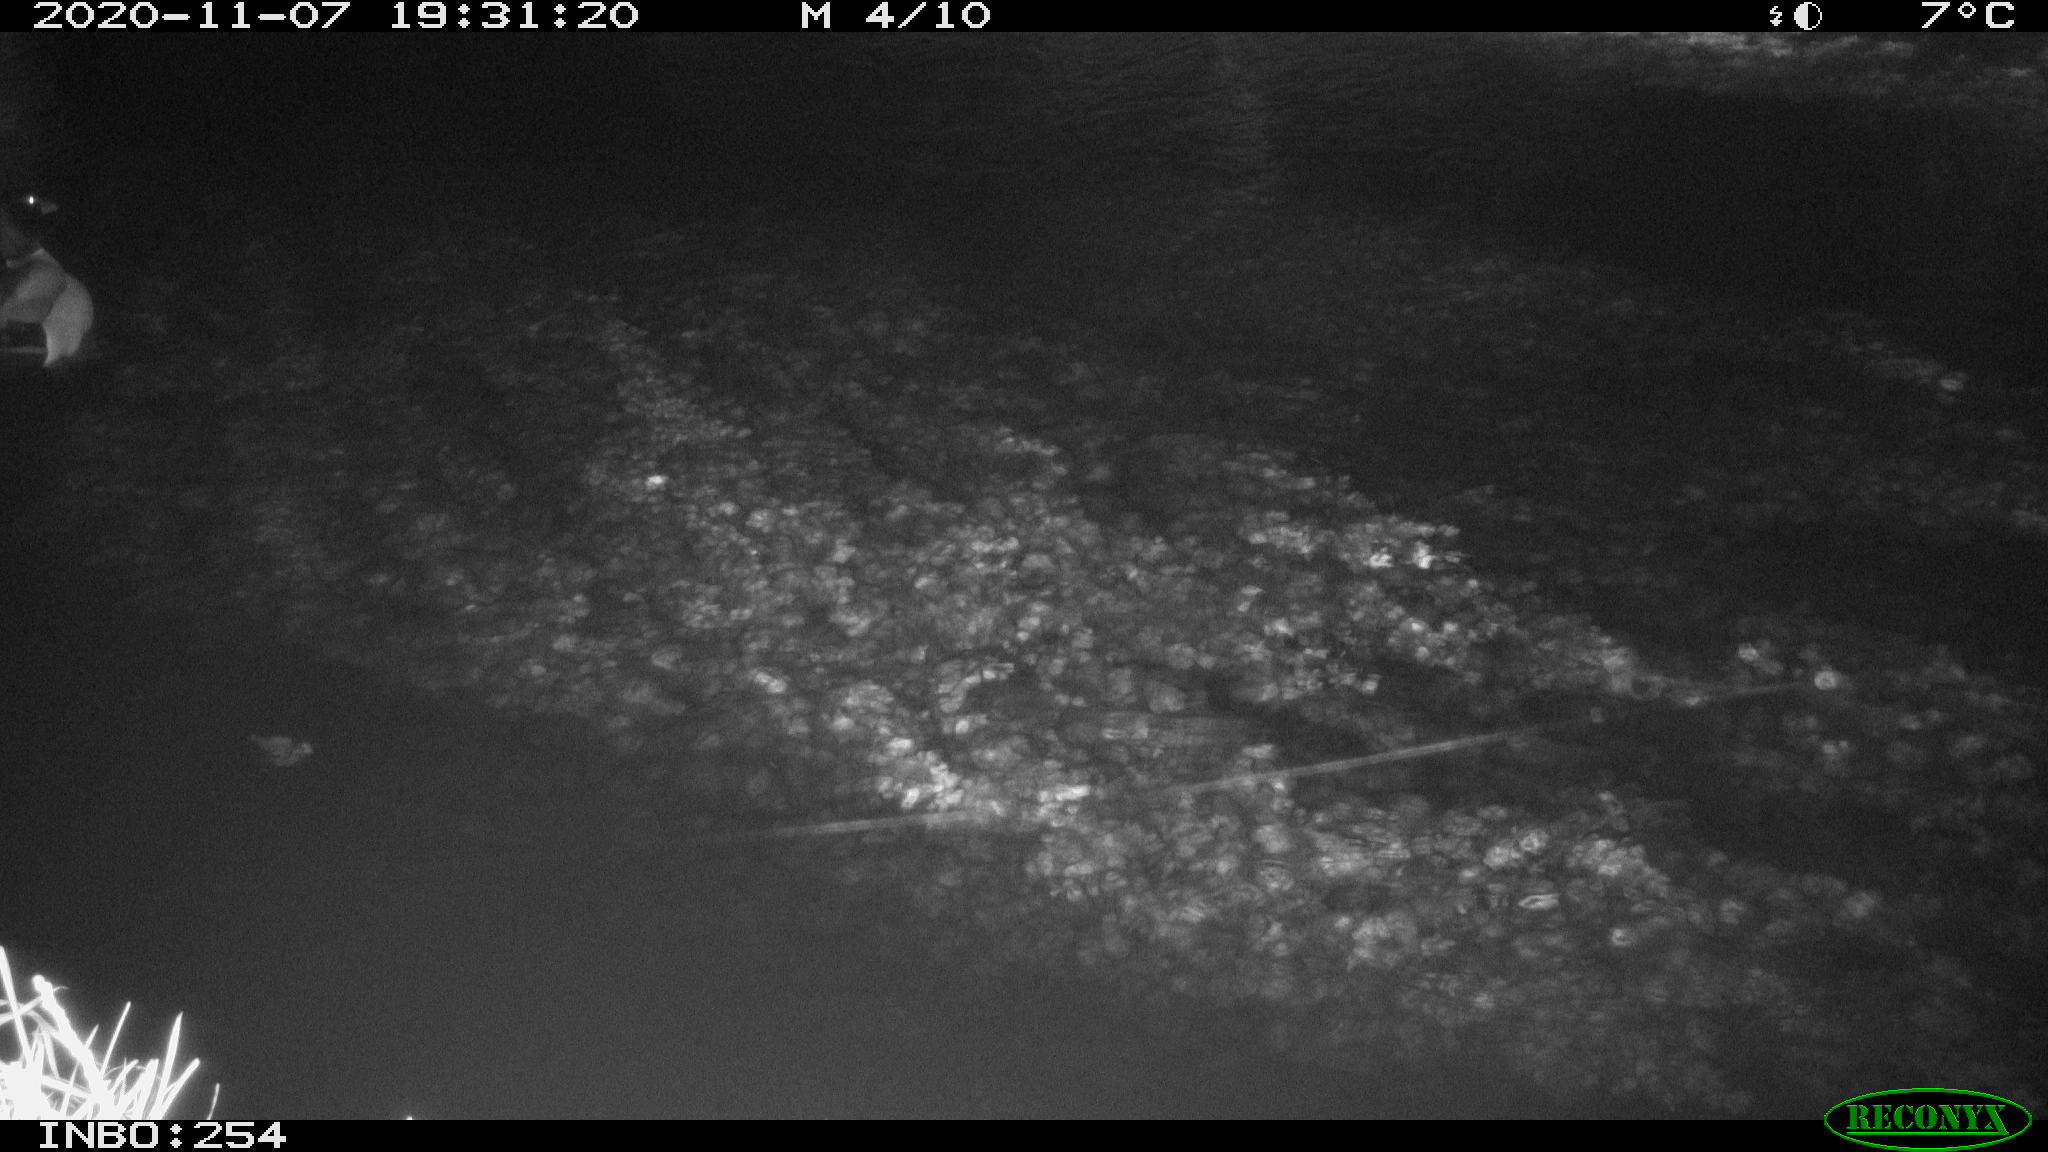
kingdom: Animalia
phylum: Chordata
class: Aves
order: Anseriformes
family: Anatidae
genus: Anas
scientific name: Anas platyrhynchos
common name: Mallard
